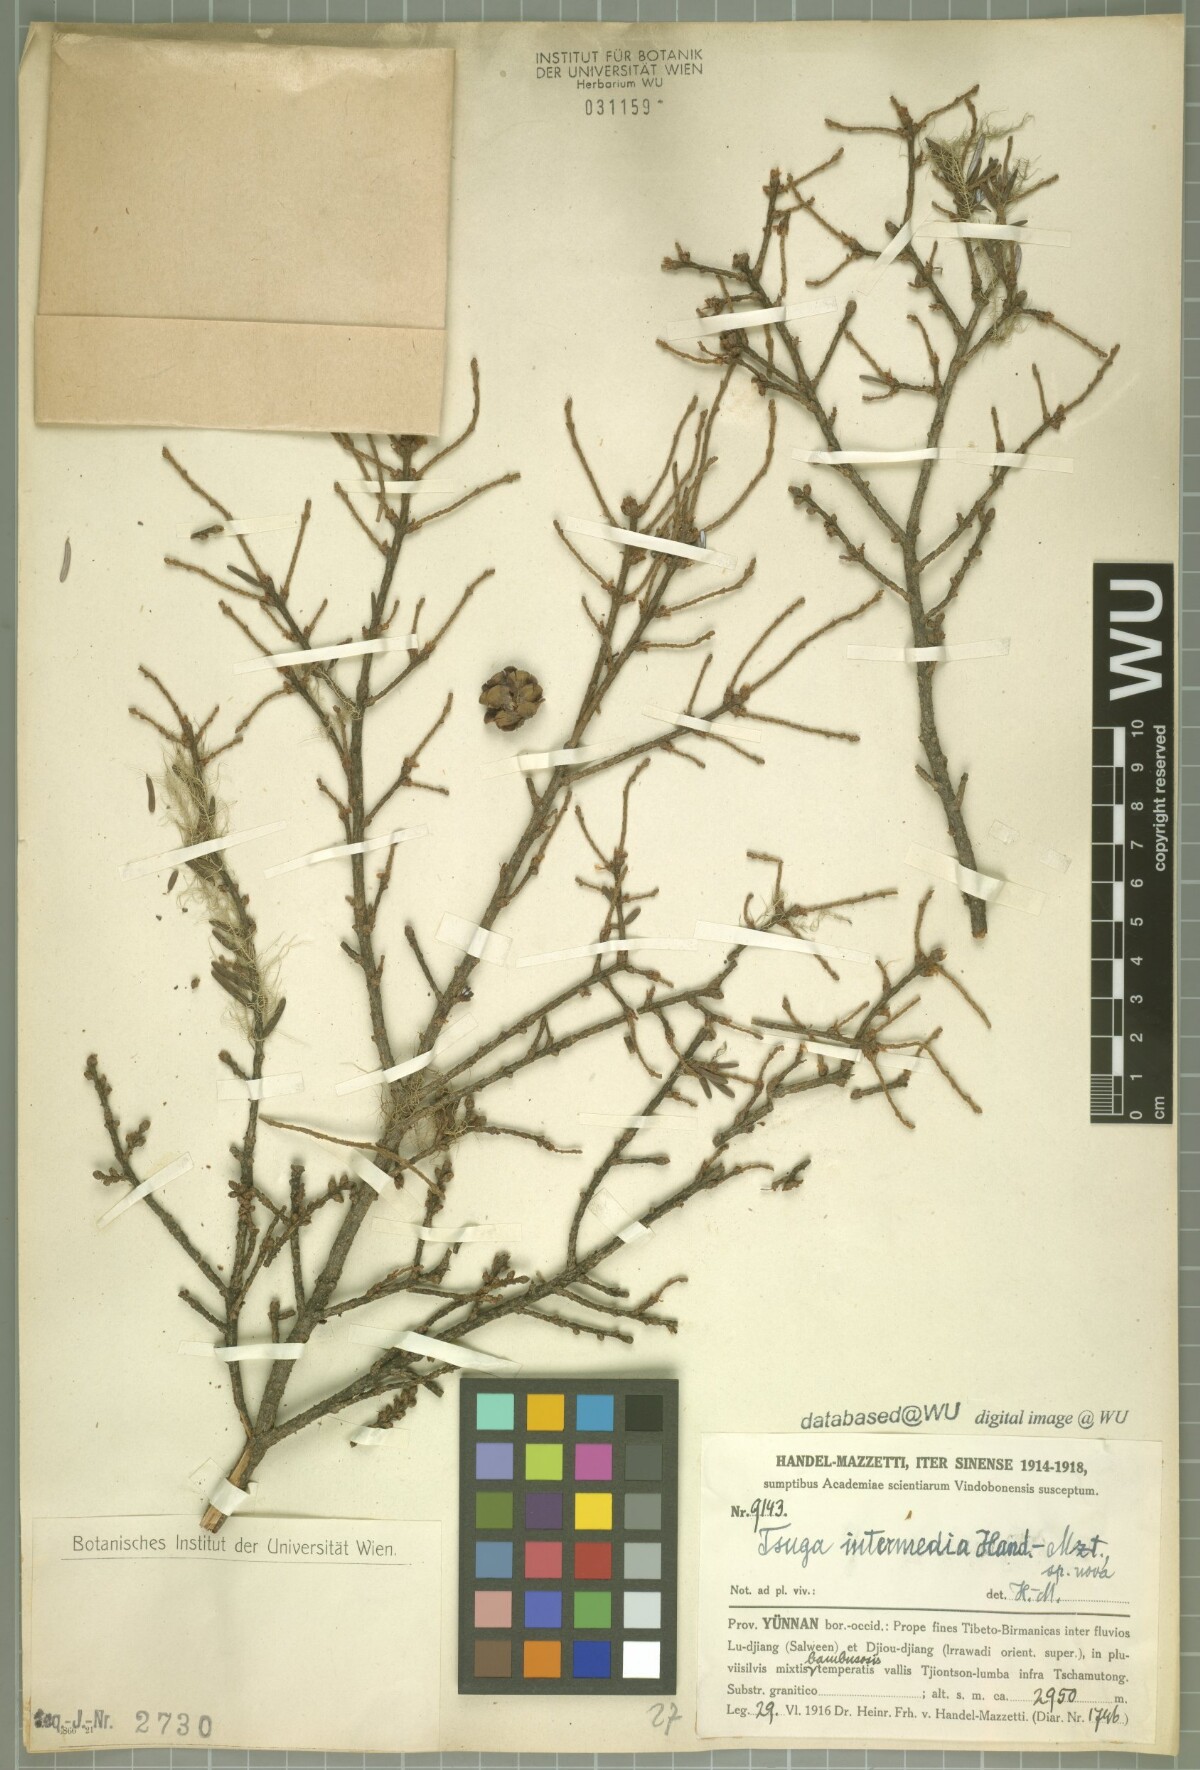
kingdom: Plantae
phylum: Tracheophyta
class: Pinopsida
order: Pinales
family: Pinaceae
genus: Tsuga
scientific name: Tsuga dumosa
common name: Himalayan hemlock
